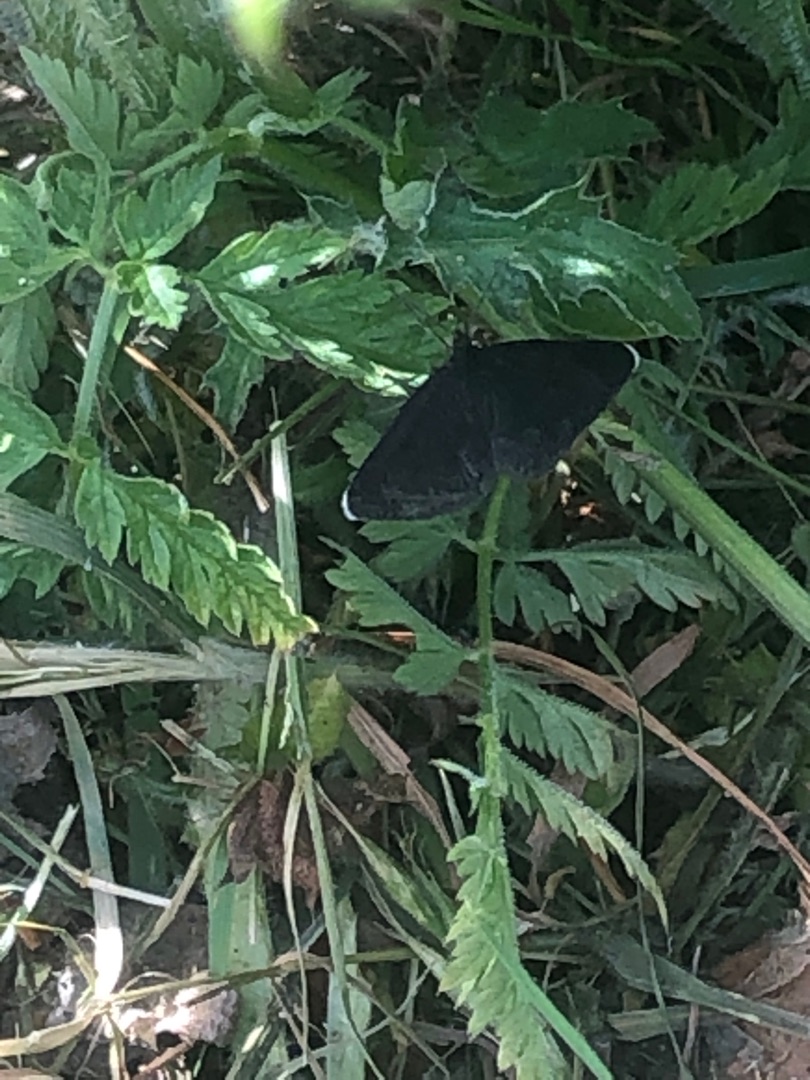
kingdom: Animalia
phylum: Arthropoda
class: Insecta
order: Lepidoptera
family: Geometridae
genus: Odezia
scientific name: Odezia atrata
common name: Sort måler
